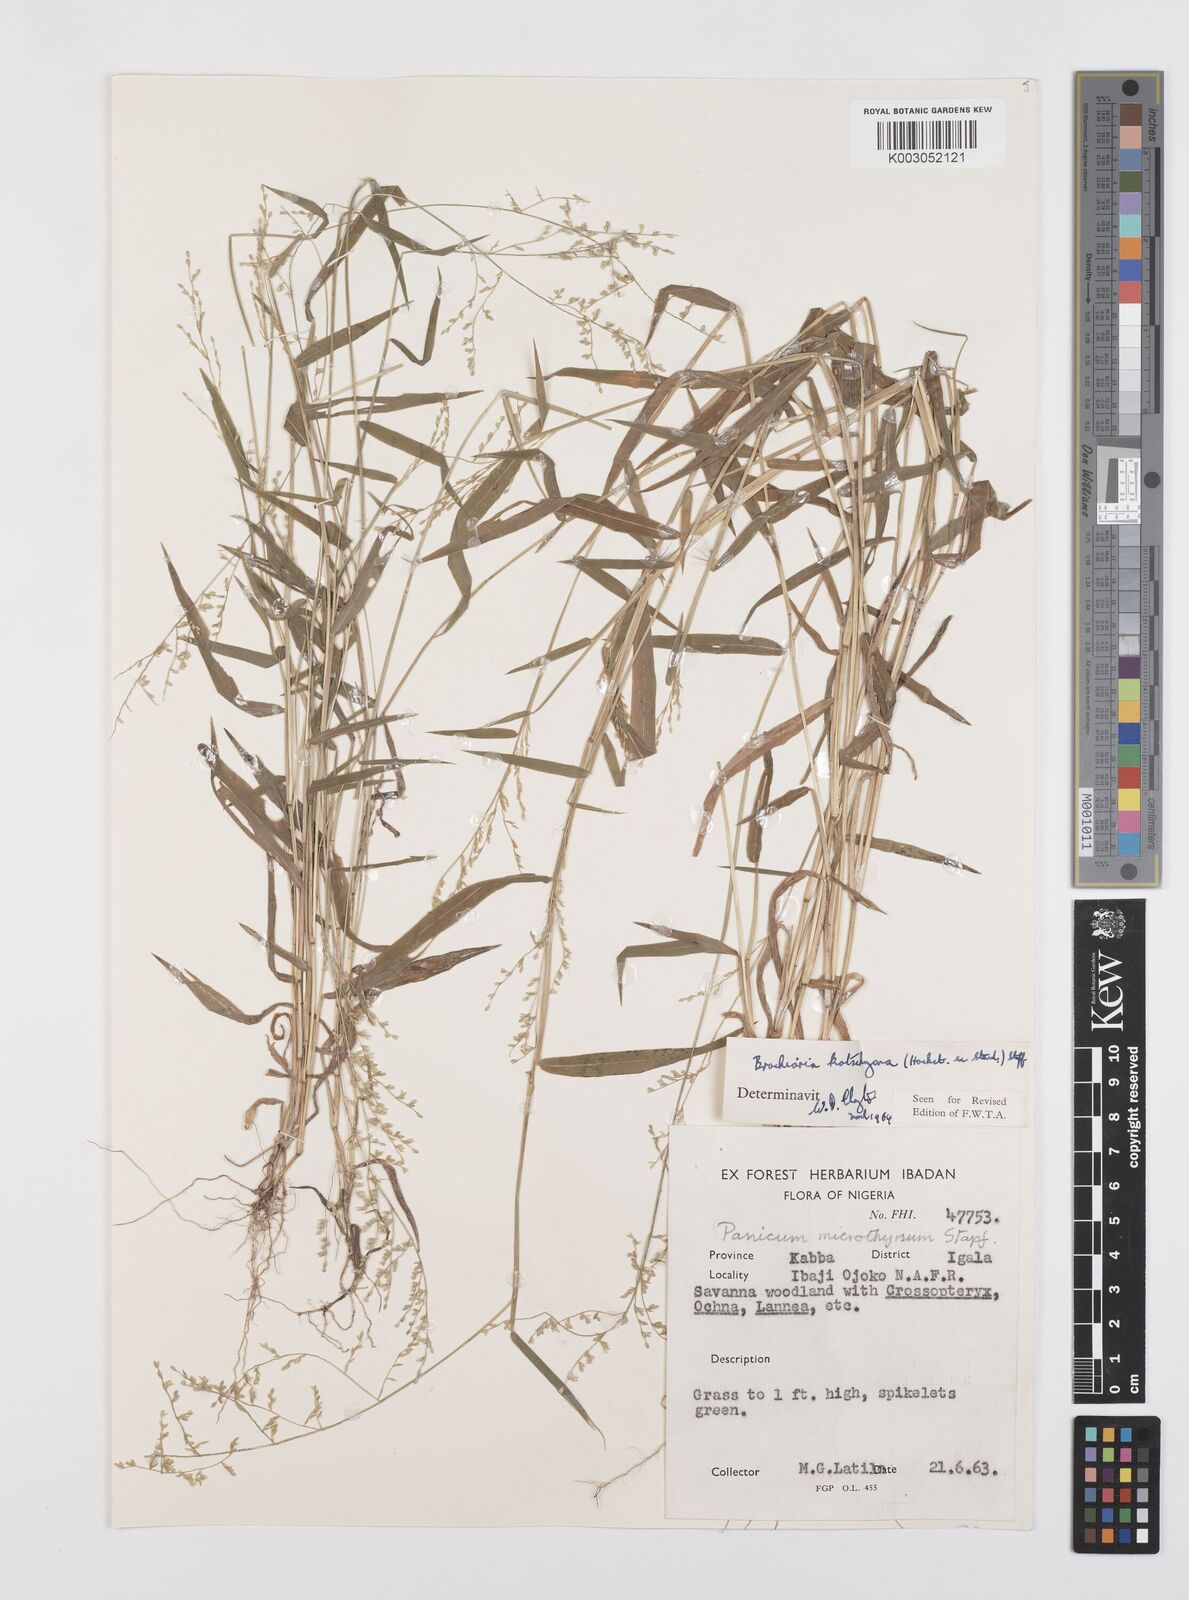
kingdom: Plantae
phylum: Tracheophyta
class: Liliopsida
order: Poales
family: Poaceae
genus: Urochloa
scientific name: Urochloa comata
